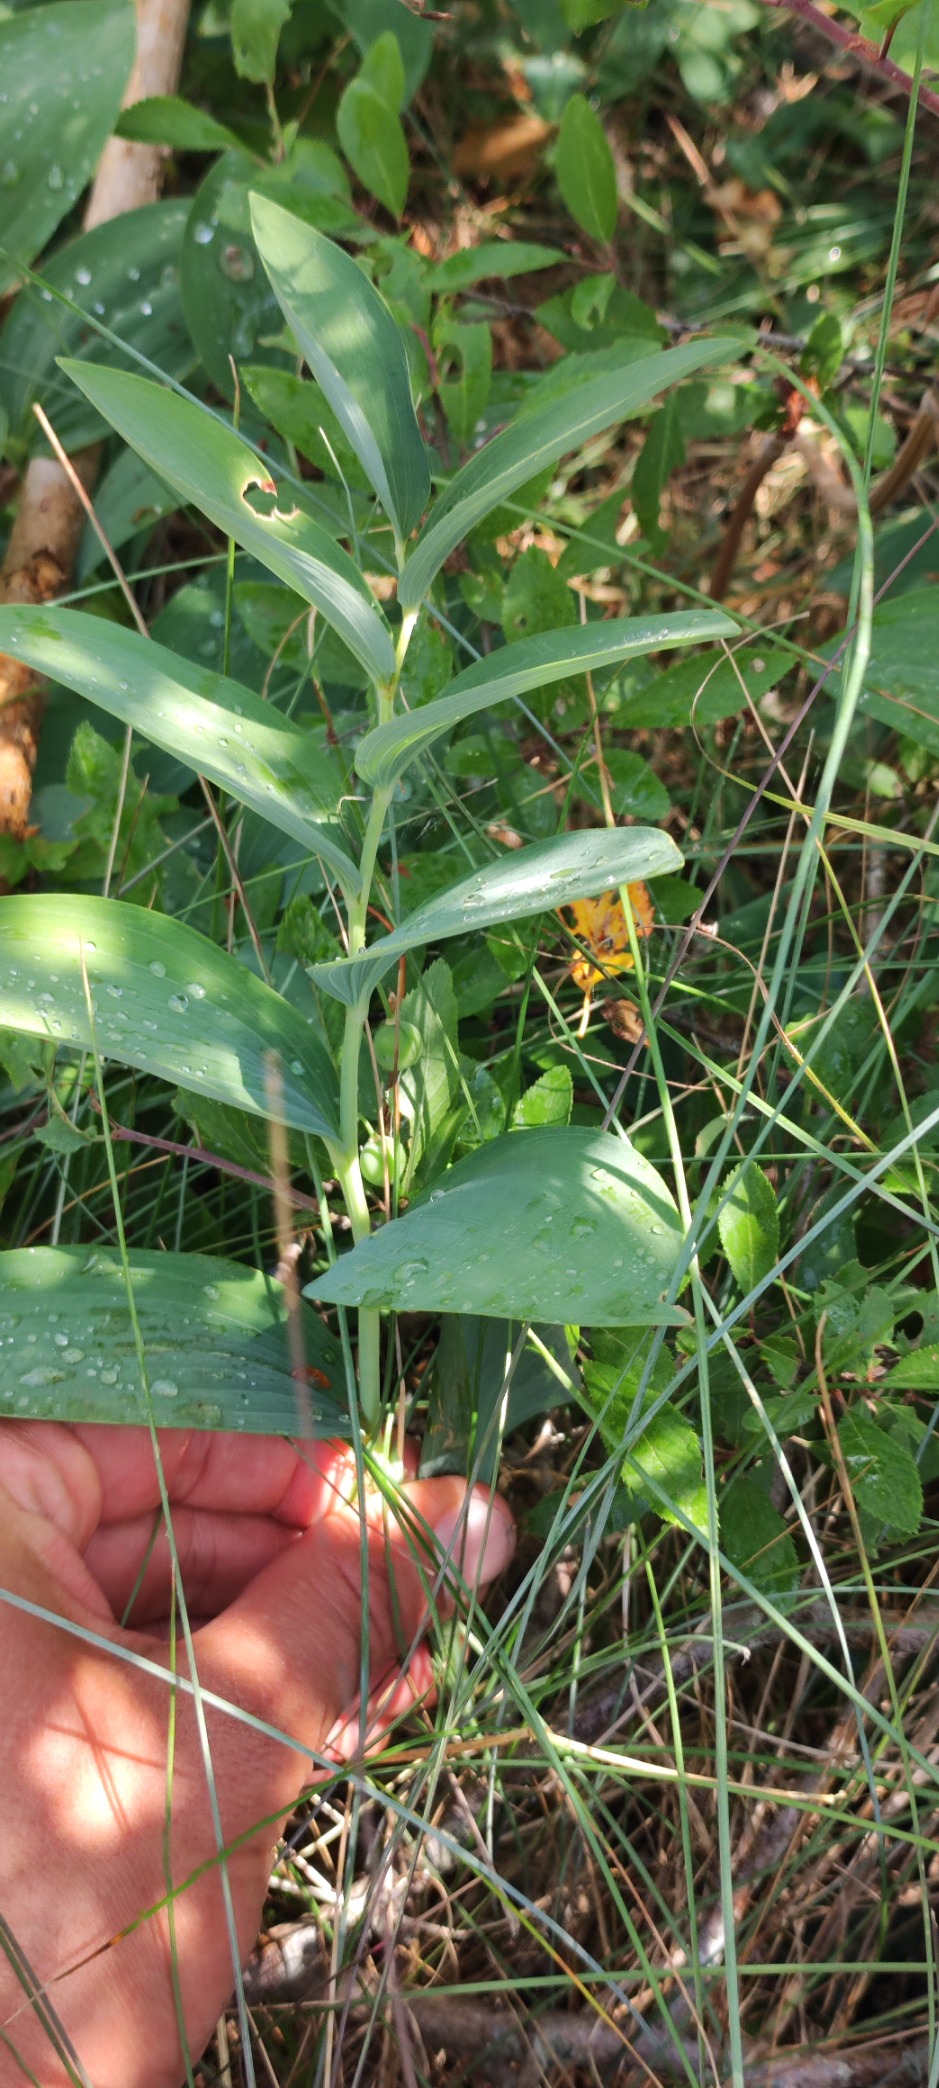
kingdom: Plantae
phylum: Tracheophyta
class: Liliopsida
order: Asparagales
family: Asparagaceae
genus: Polygonatum
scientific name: Polygonatum odoratum
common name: Kantet konval
